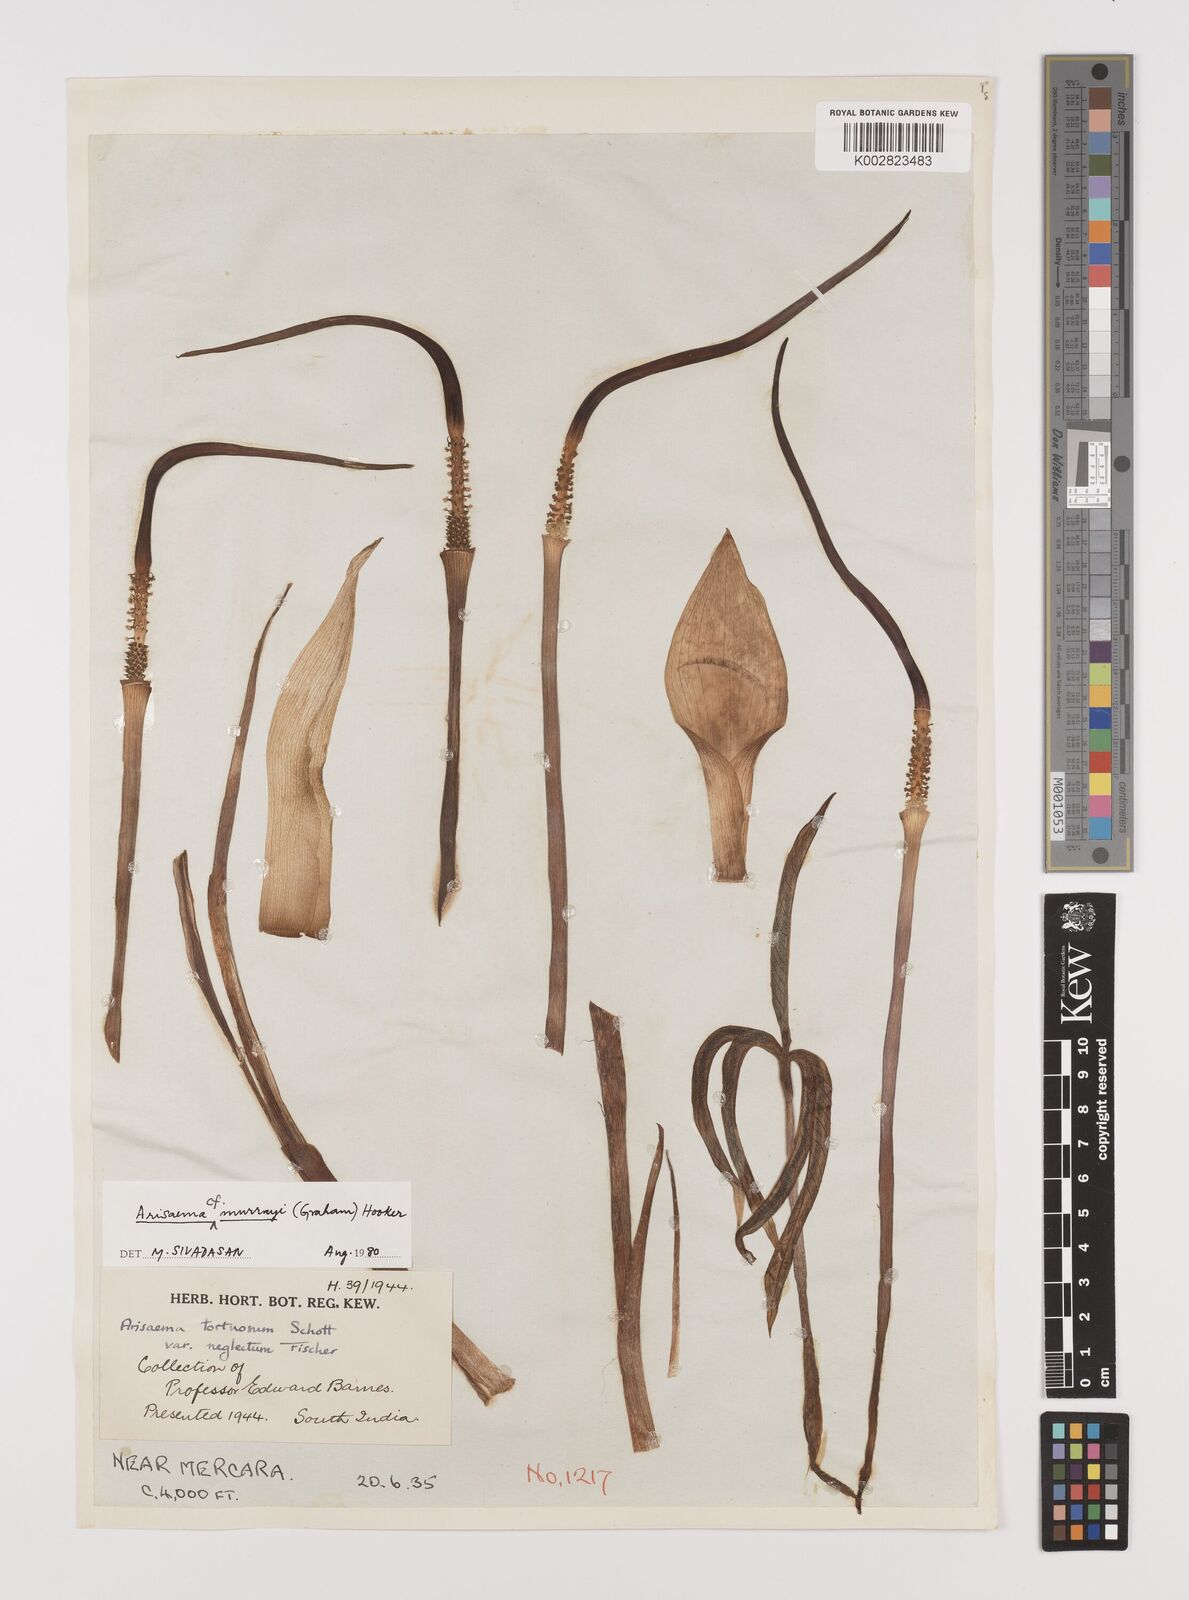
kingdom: Plantae
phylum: Tracheophyta
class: Liliopsida
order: Alismatales
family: Araceae
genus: Arisaema
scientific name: Arisaema
